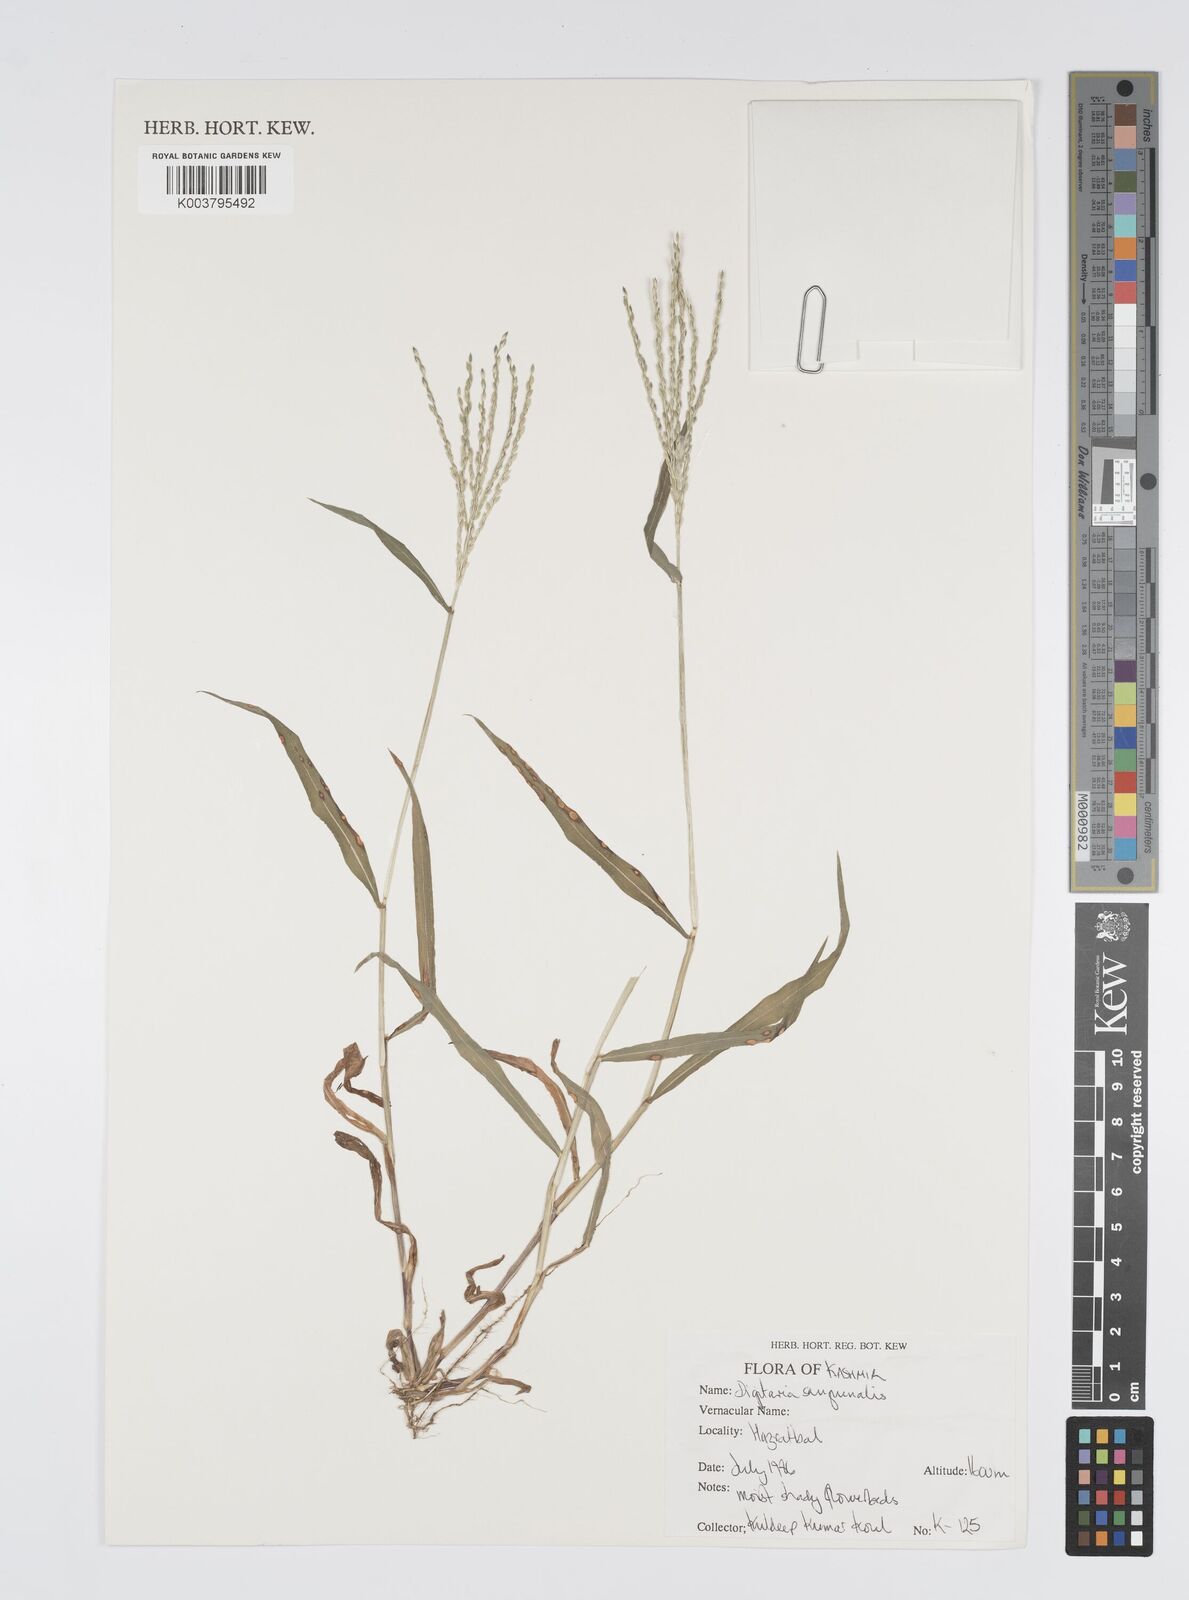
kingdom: Plantae
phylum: Tracheophyta
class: Liliopsida
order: Poales
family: Poaceae
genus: Digitaria
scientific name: Digitaria sanguinalis
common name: Hairy crabgrass
